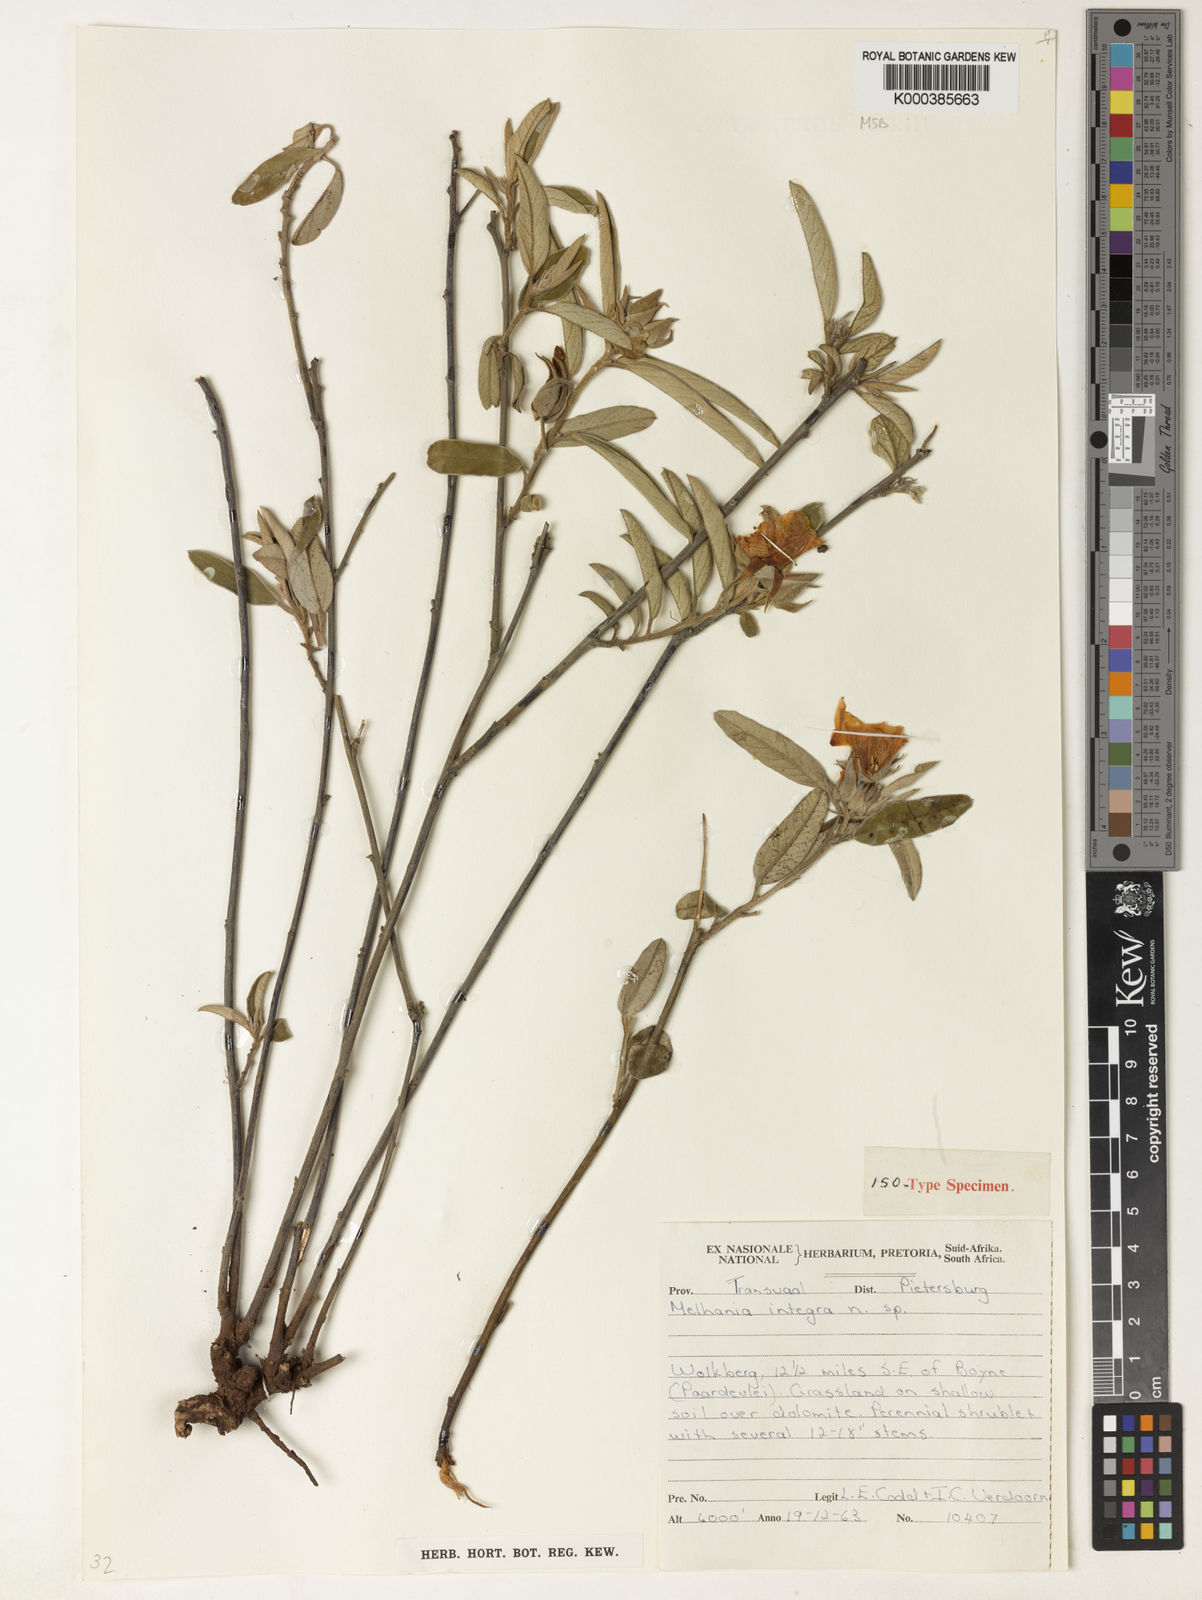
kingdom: Plantae
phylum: Tracheophyta
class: Magnoliopsida
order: Malvales
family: Malvaceae
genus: Melhania
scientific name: Melhania integra
